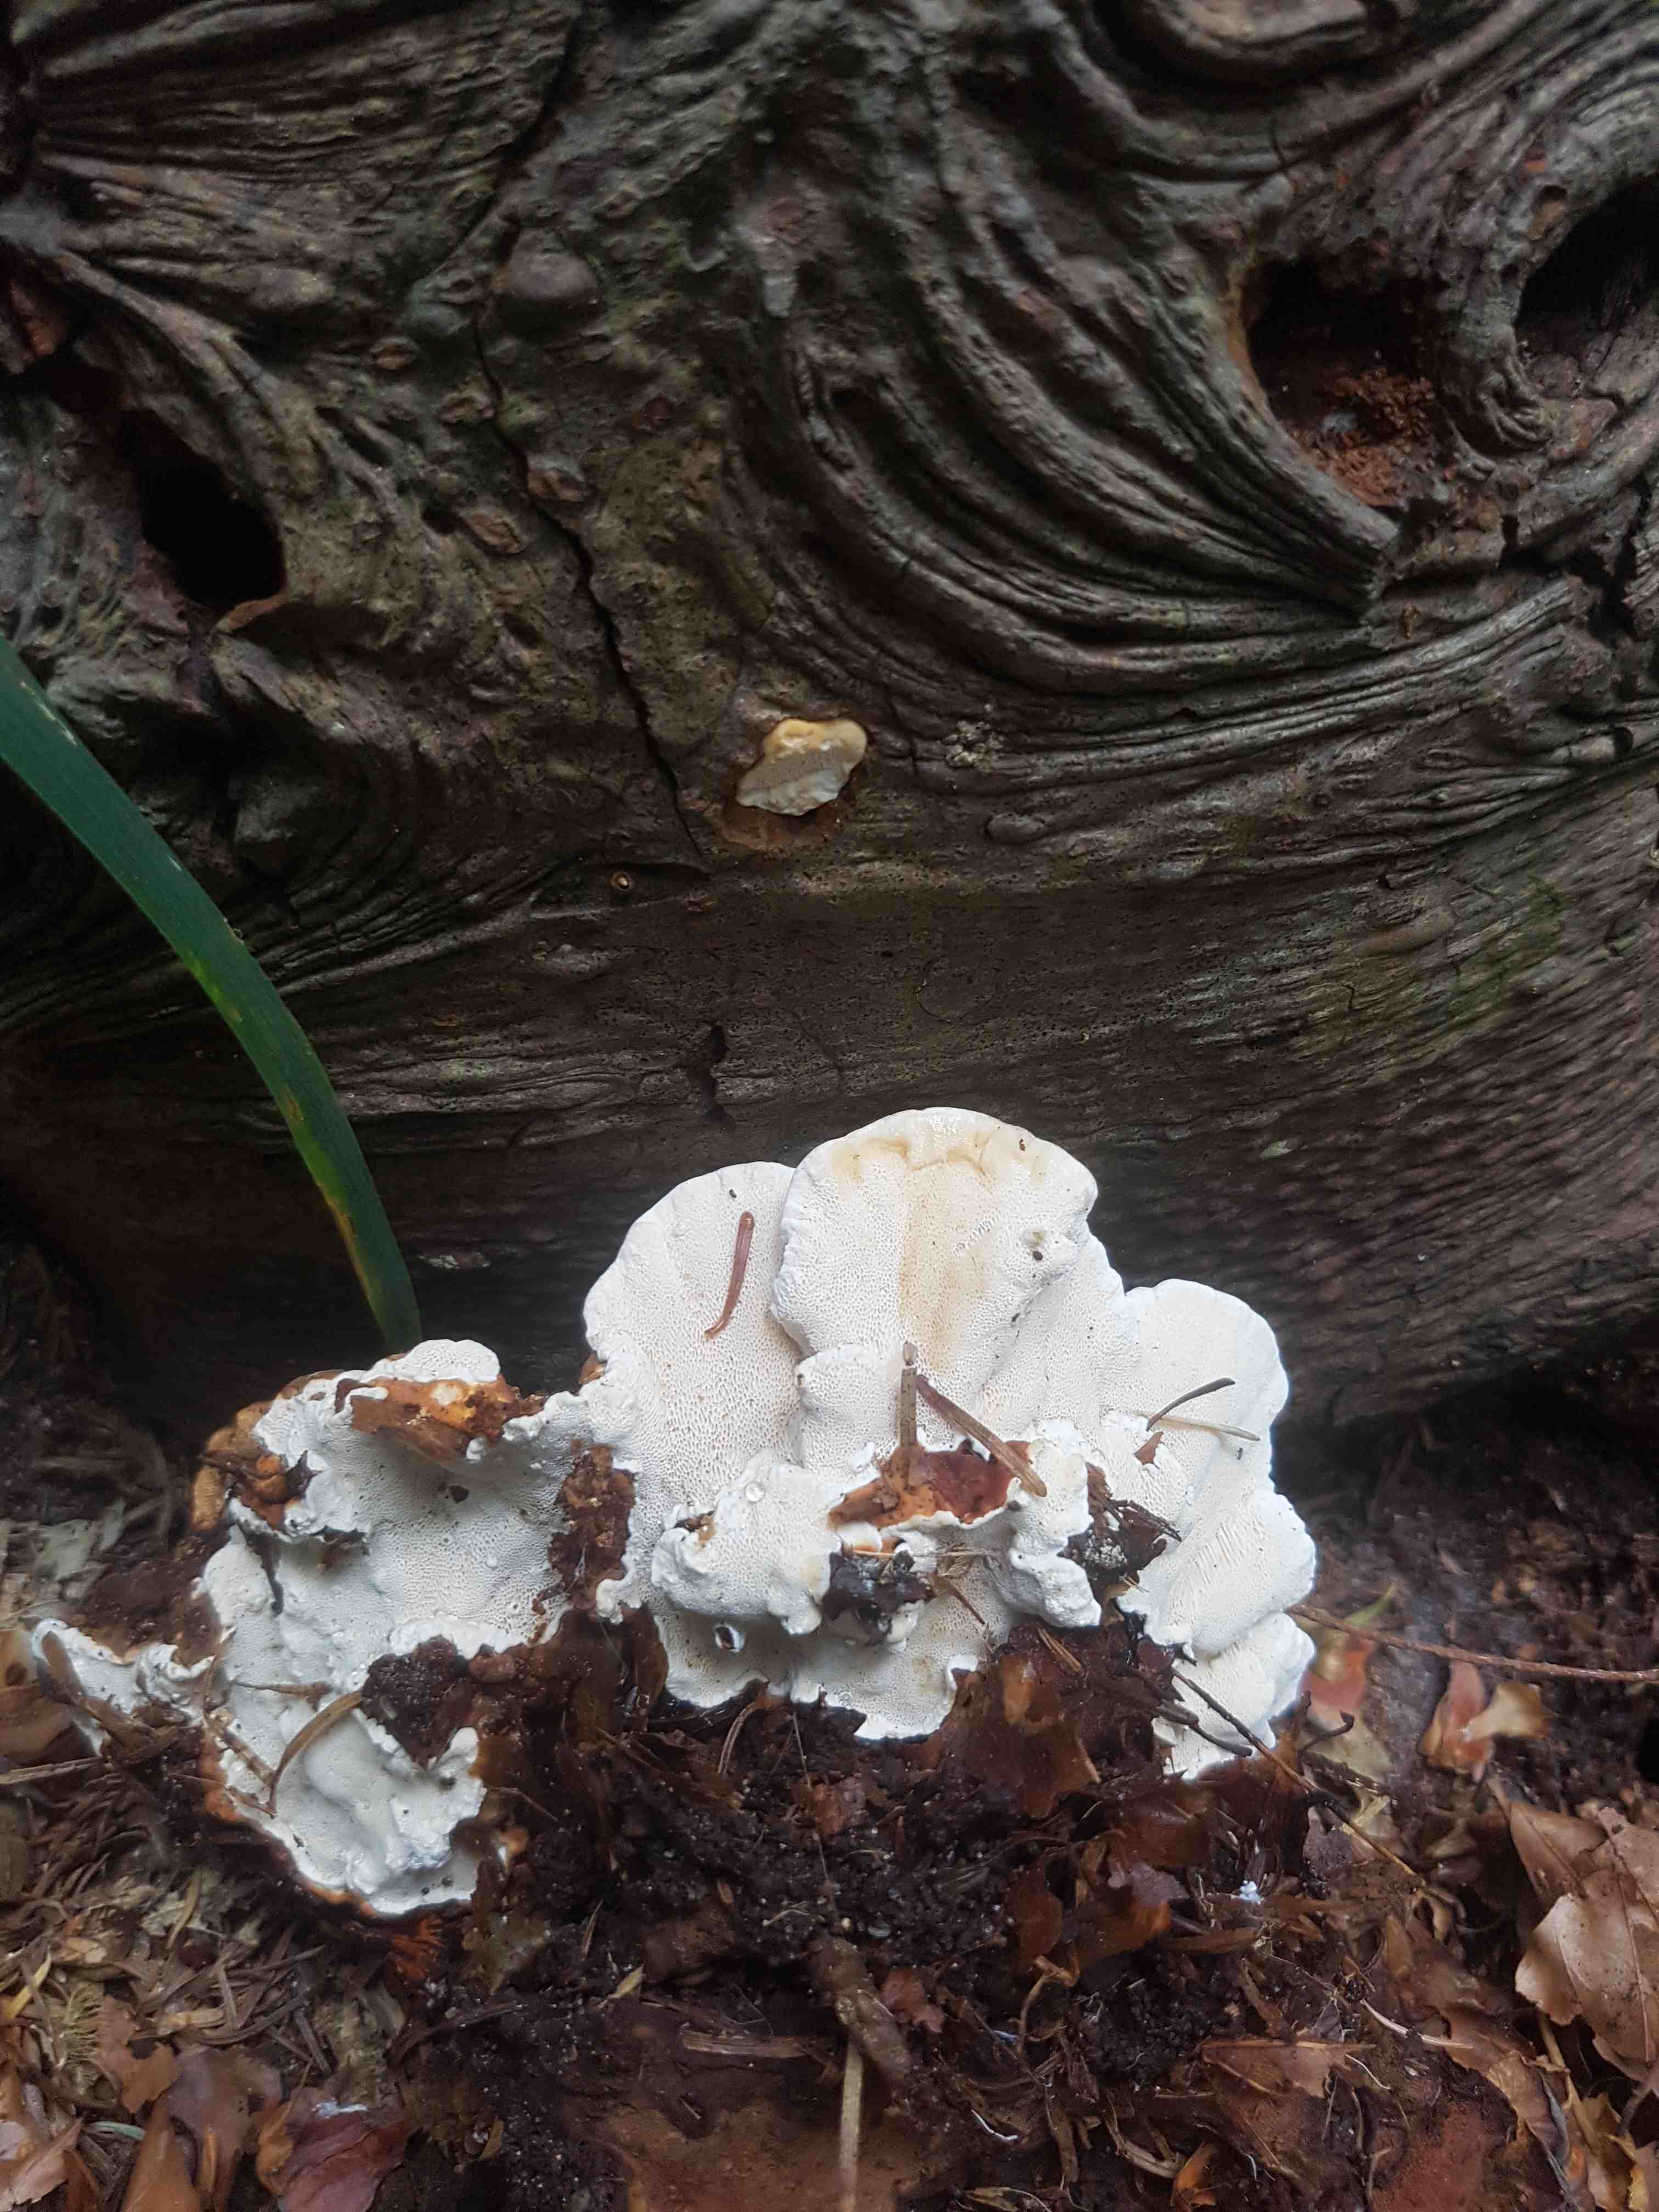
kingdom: Fungi
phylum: Basidiomycota
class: Agaricomycetes
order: Russulales
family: Bondarzewiaceae
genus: Heterobasidion
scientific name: Heterobasidion annosum
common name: almindelig rodfordærver
